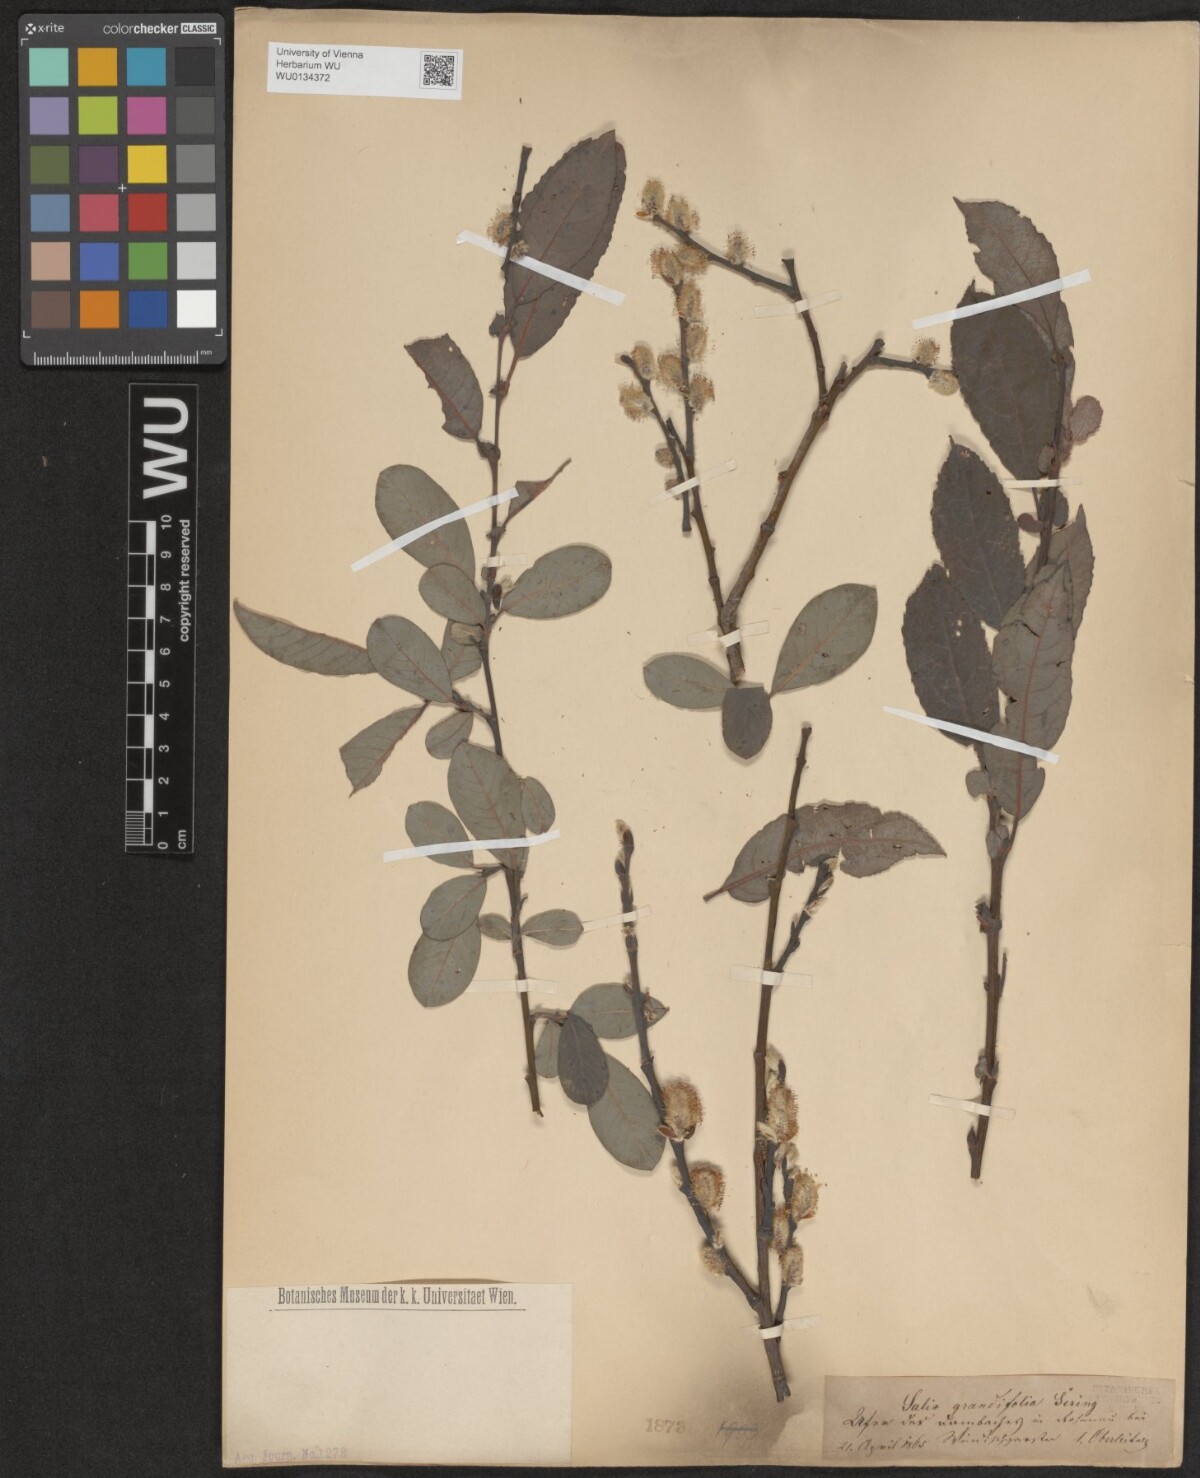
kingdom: Plantae
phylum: Tracheophyta
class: Magnoliopsida
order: Malpighiales
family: Salicaceae
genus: Salix
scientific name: Salix appendiculata
